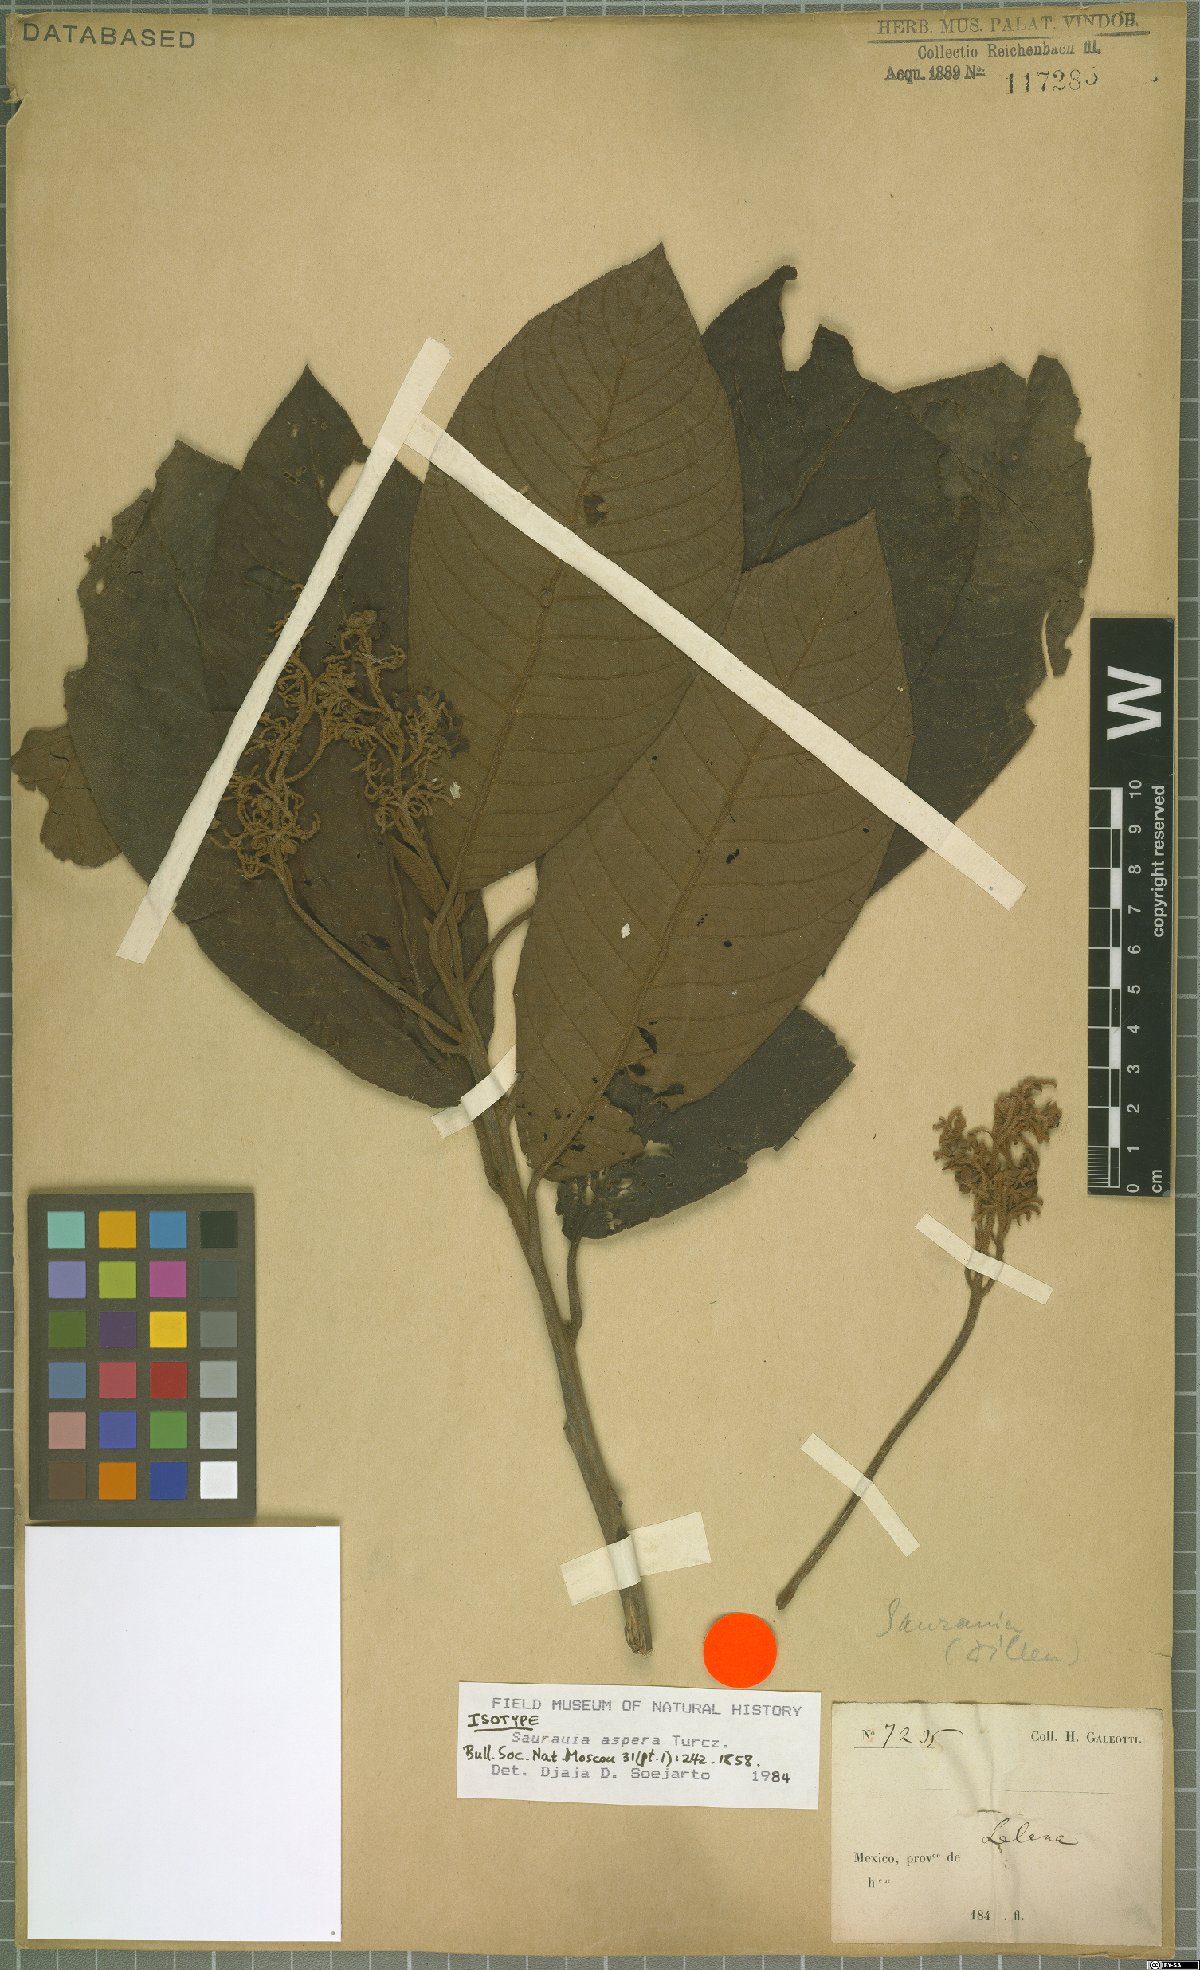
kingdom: Plantae
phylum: Tracheophyta
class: Magnoliopsida
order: Ericales
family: Actinidiaceae
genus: Saurauia
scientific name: Saurauia aspera
